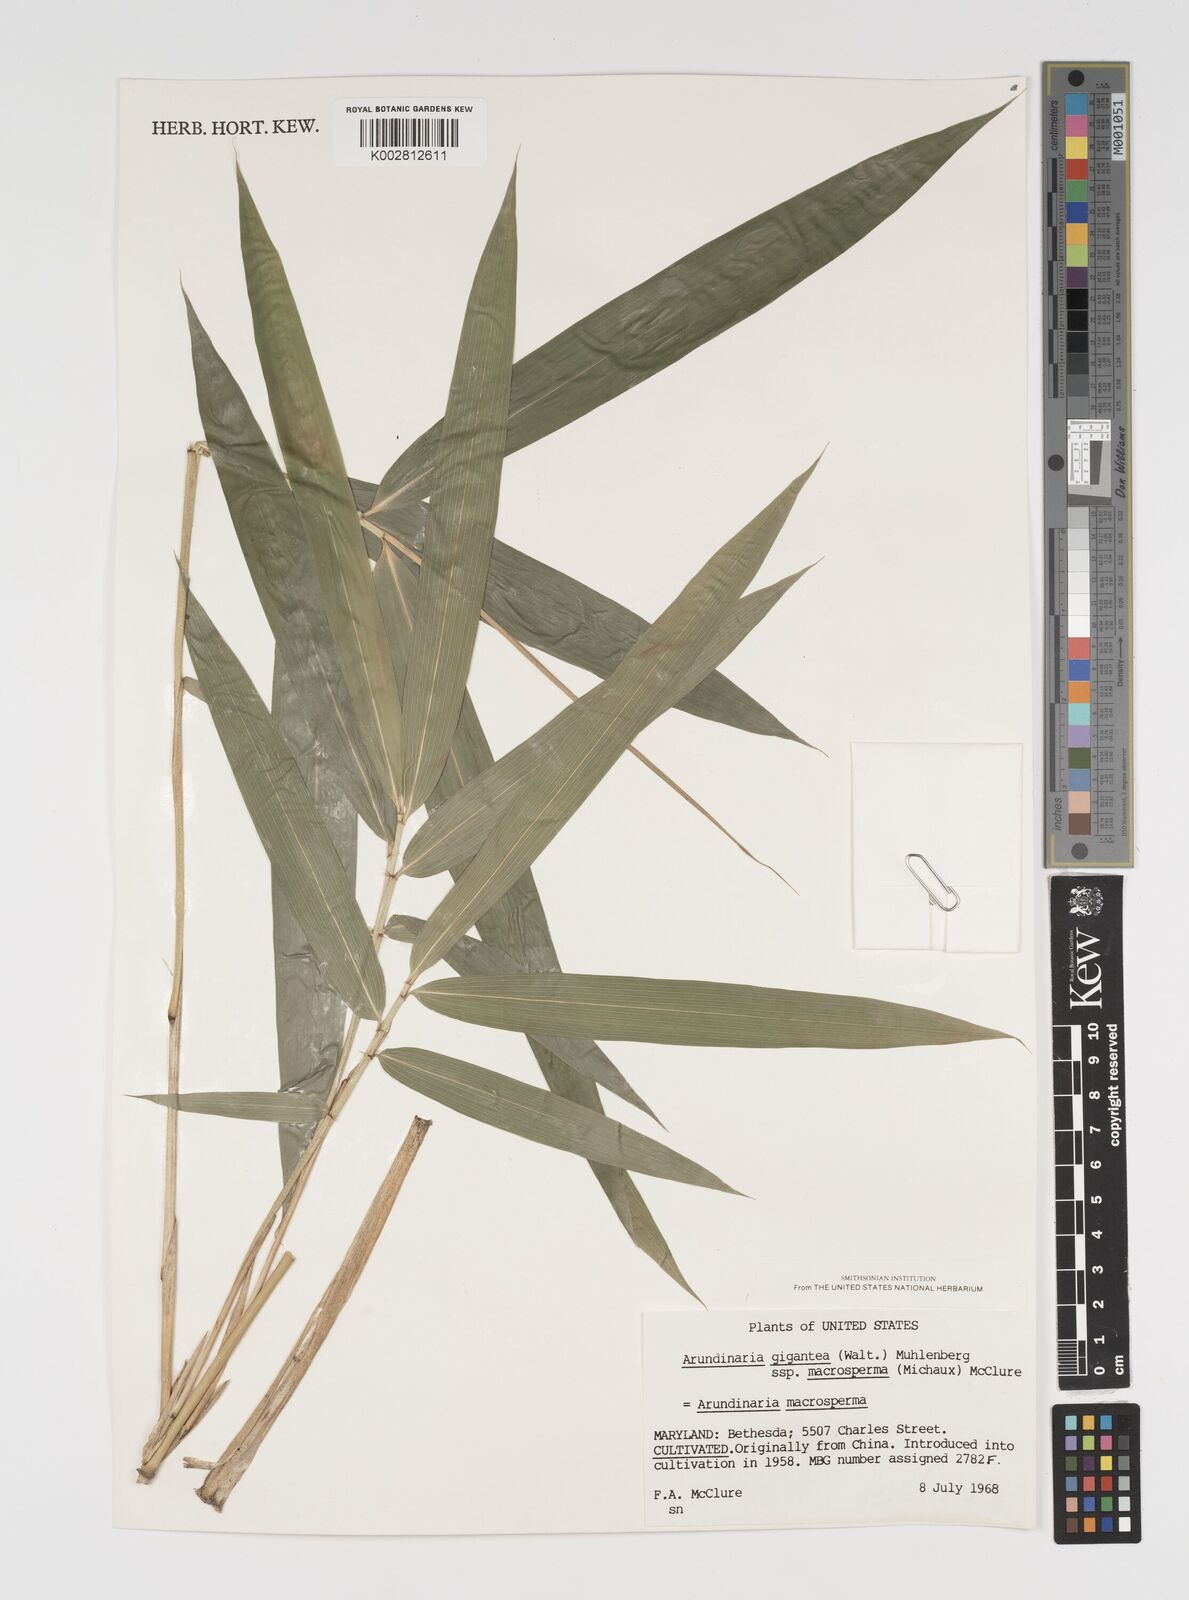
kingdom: Plantae
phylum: Tracheophyta
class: Liliopsida
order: Poales
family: Poaceae
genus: Arundinaria
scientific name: Arundinaria
